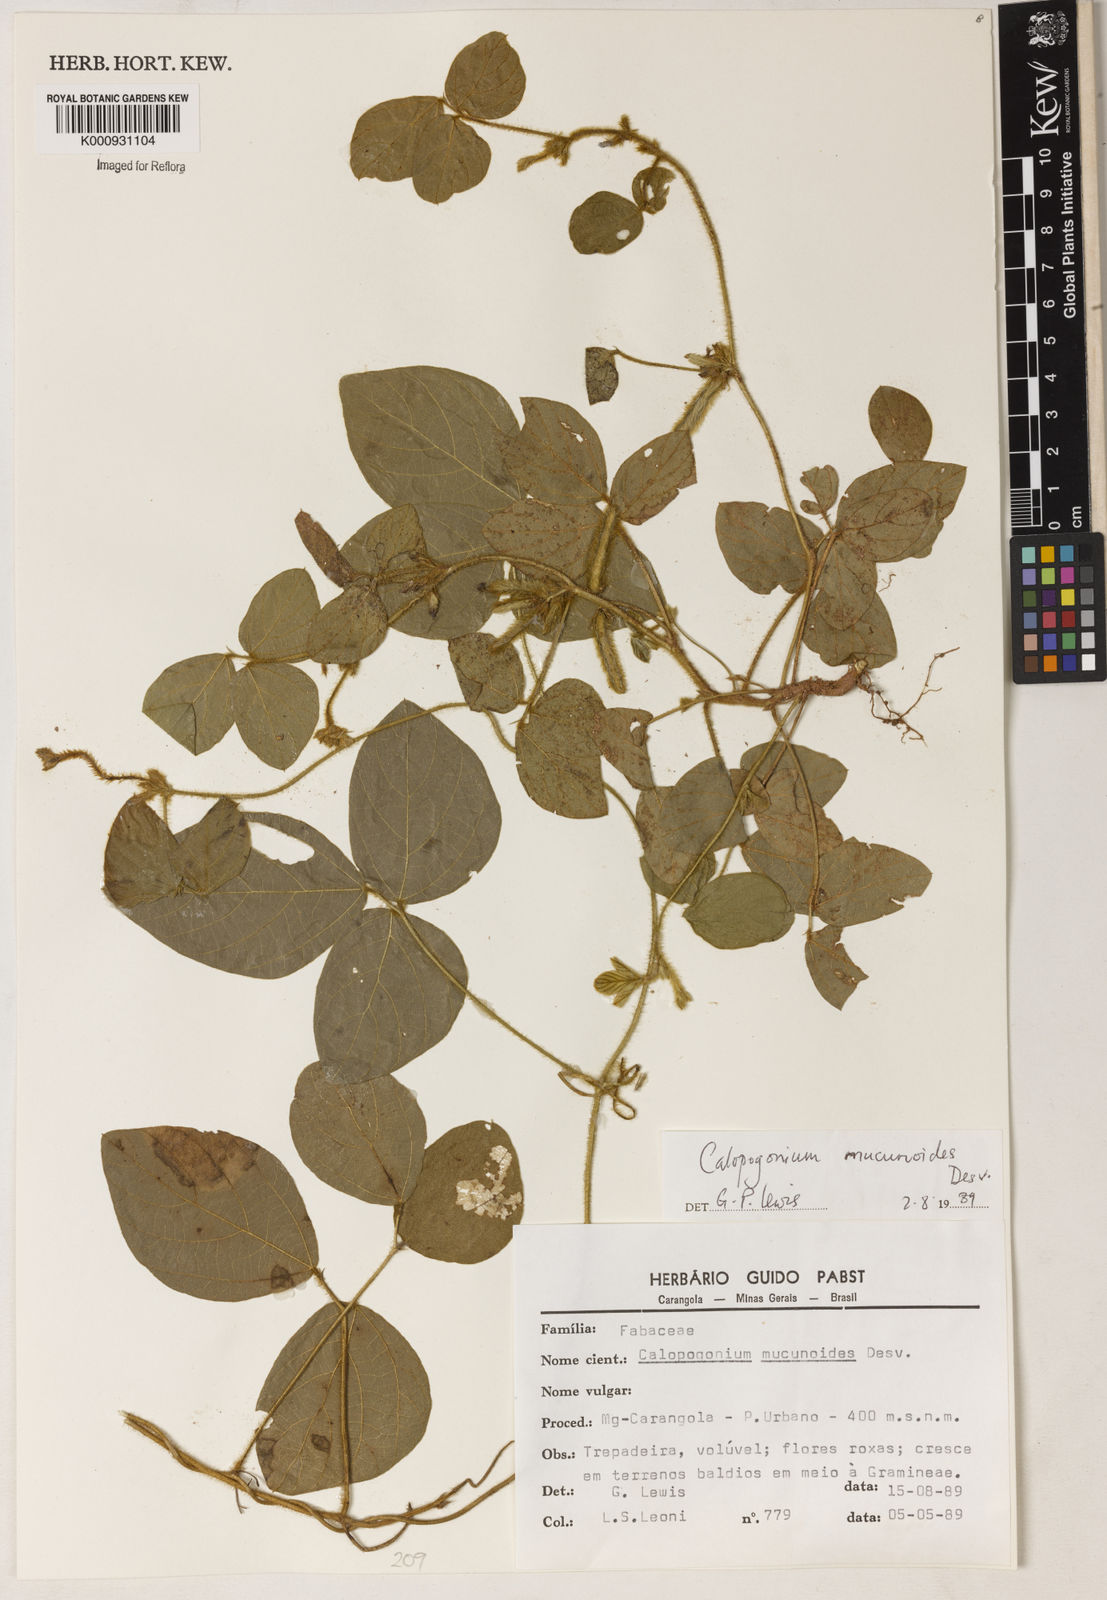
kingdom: Plantae
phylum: Tracheophyta
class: Magnoliopsida
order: Fabales
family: Fabaceae
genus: Calopogonium
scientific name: Calopogonium mucunoides
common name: Calopo
